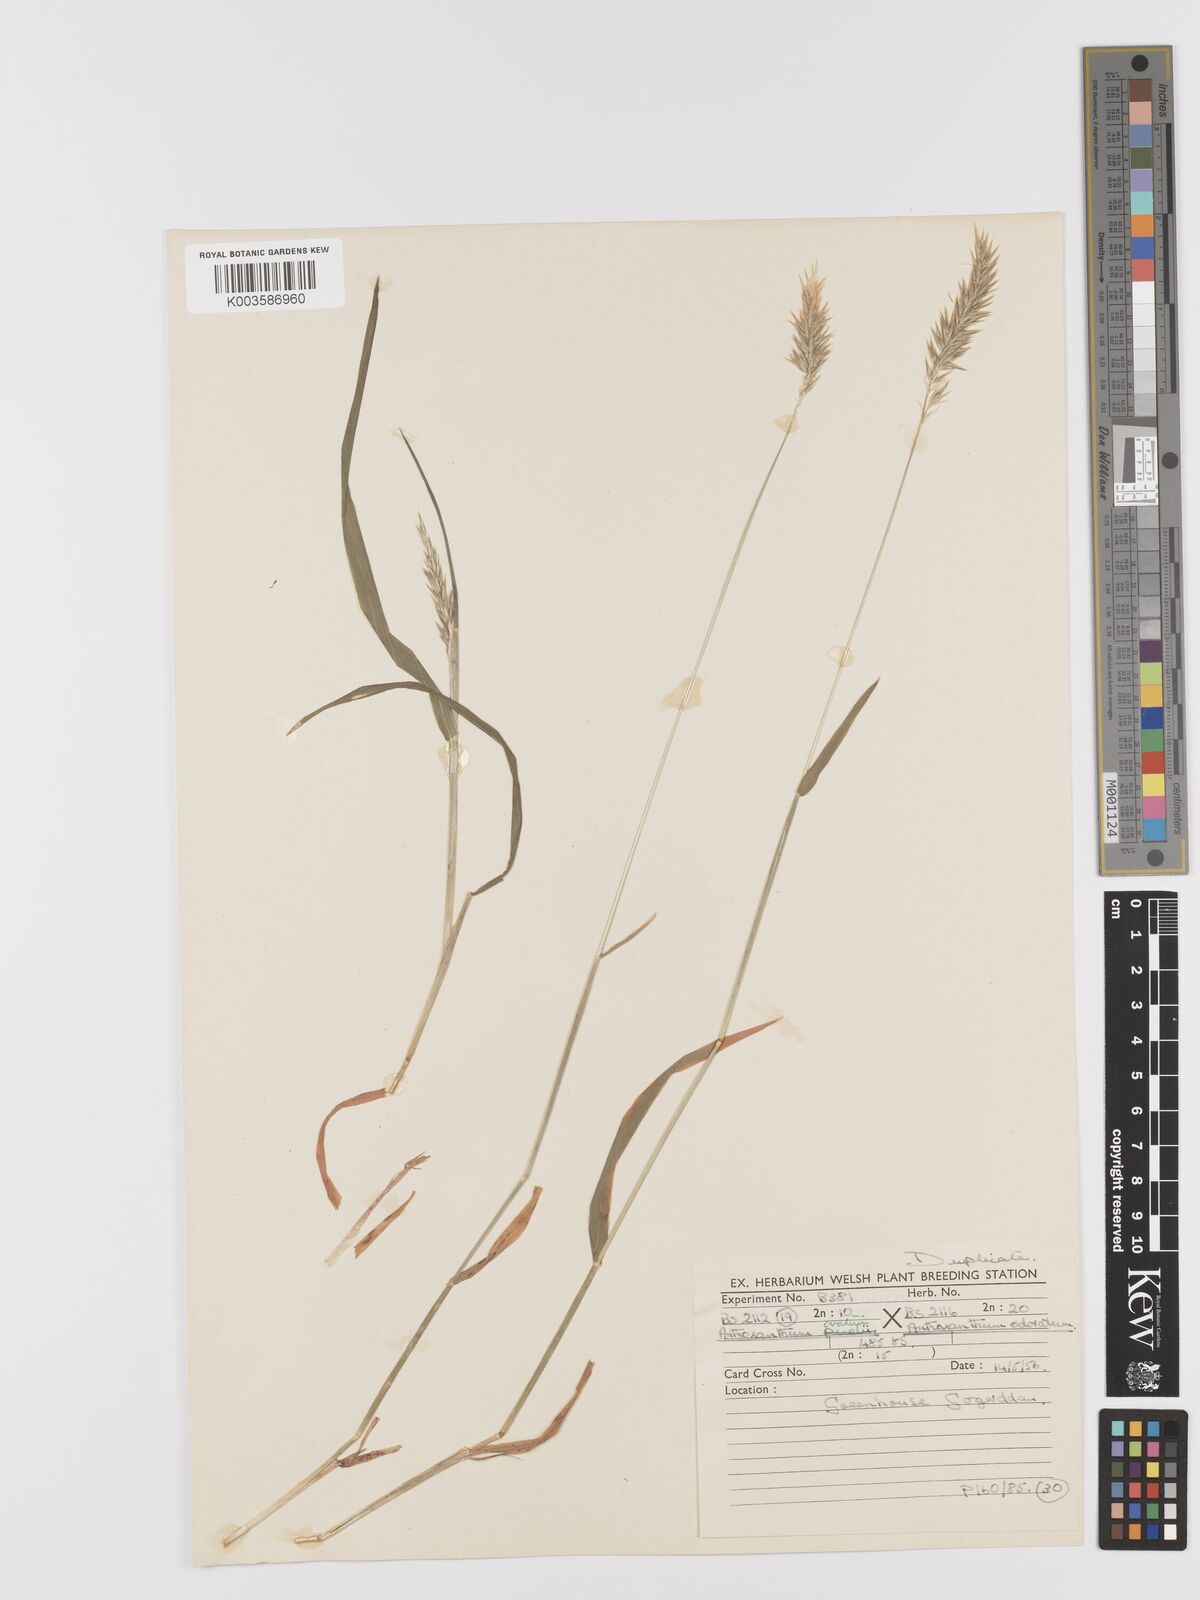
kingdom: Plantae
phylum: Tracheophyta
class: Liliopsida
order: Poales
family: Poaceae
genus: Anthoxanthum
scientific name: Anthoxanthum odoratum
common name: Sweet vernalgrass
